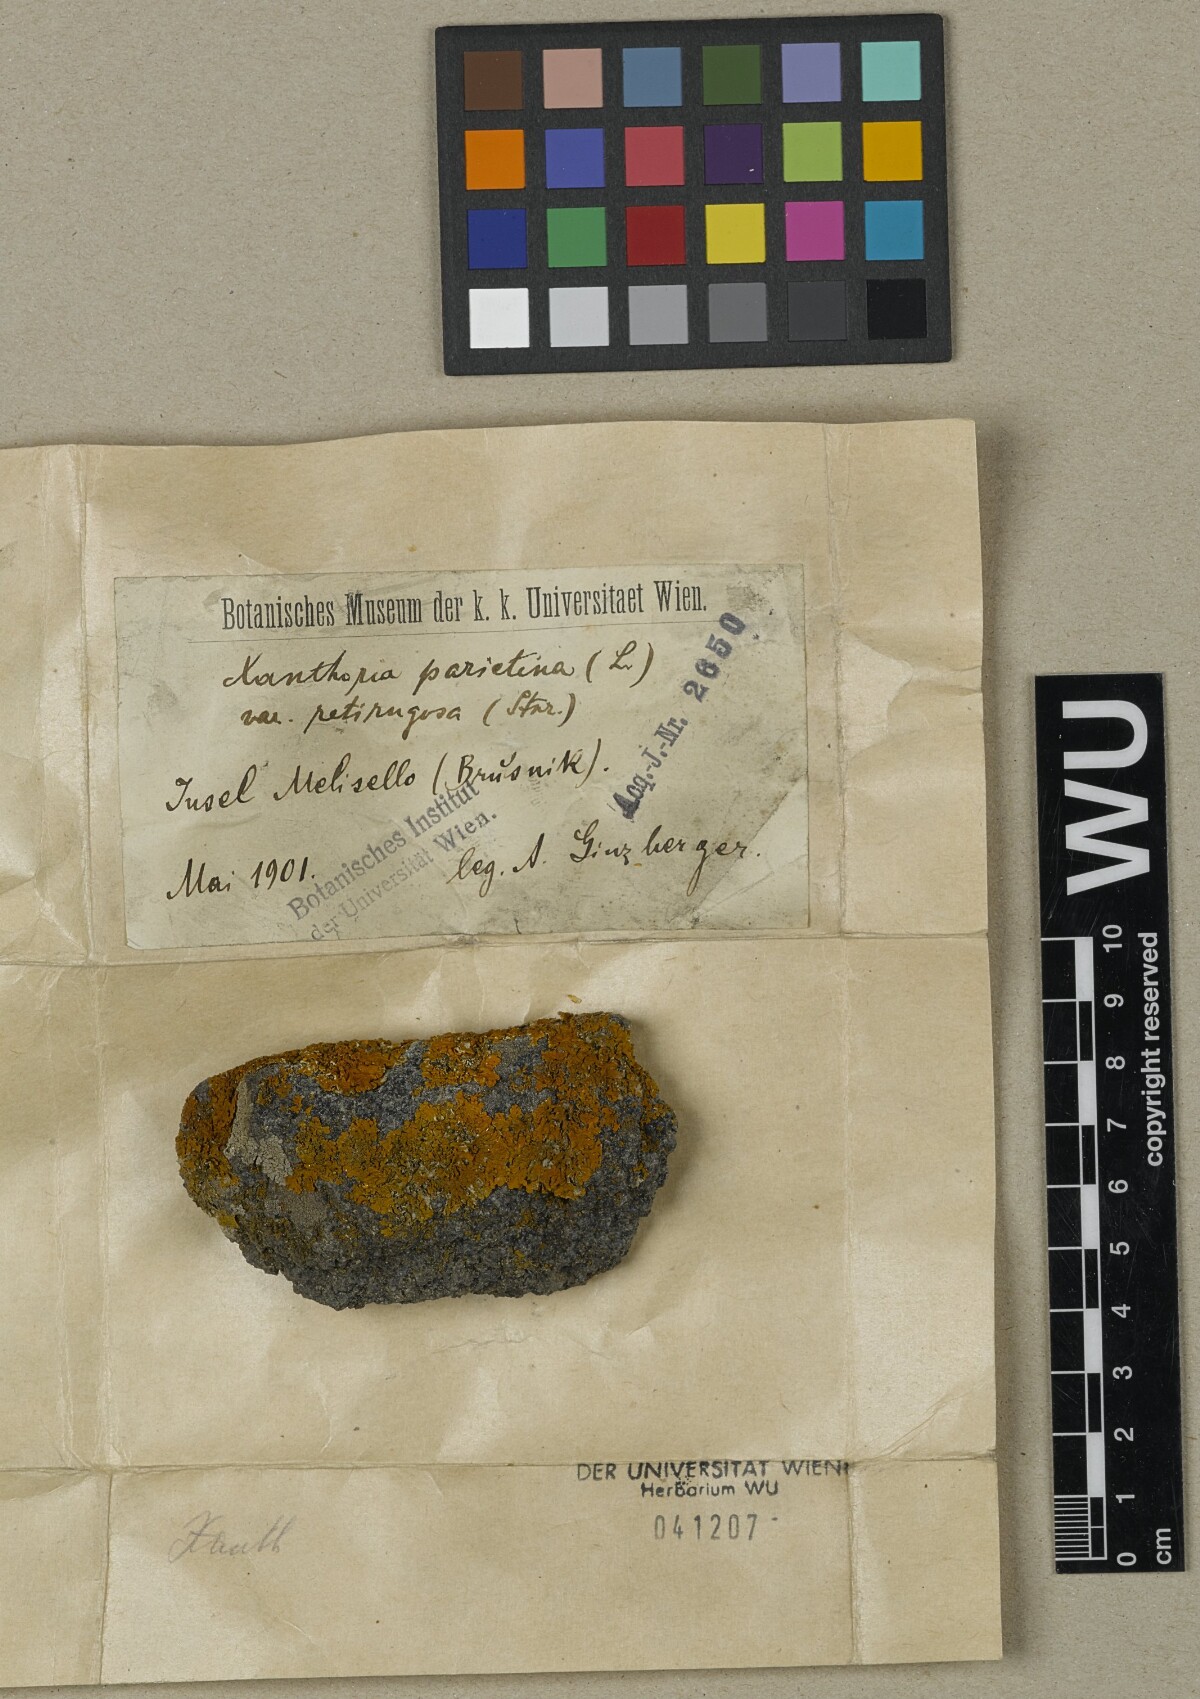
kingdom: Fungi
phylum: Ascomycota
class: Lecanoromycetes
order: Teloschistales
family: Teloschistaceae
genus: Xanthoria
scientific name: Xanthoria parietina
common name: Common orange lichen
